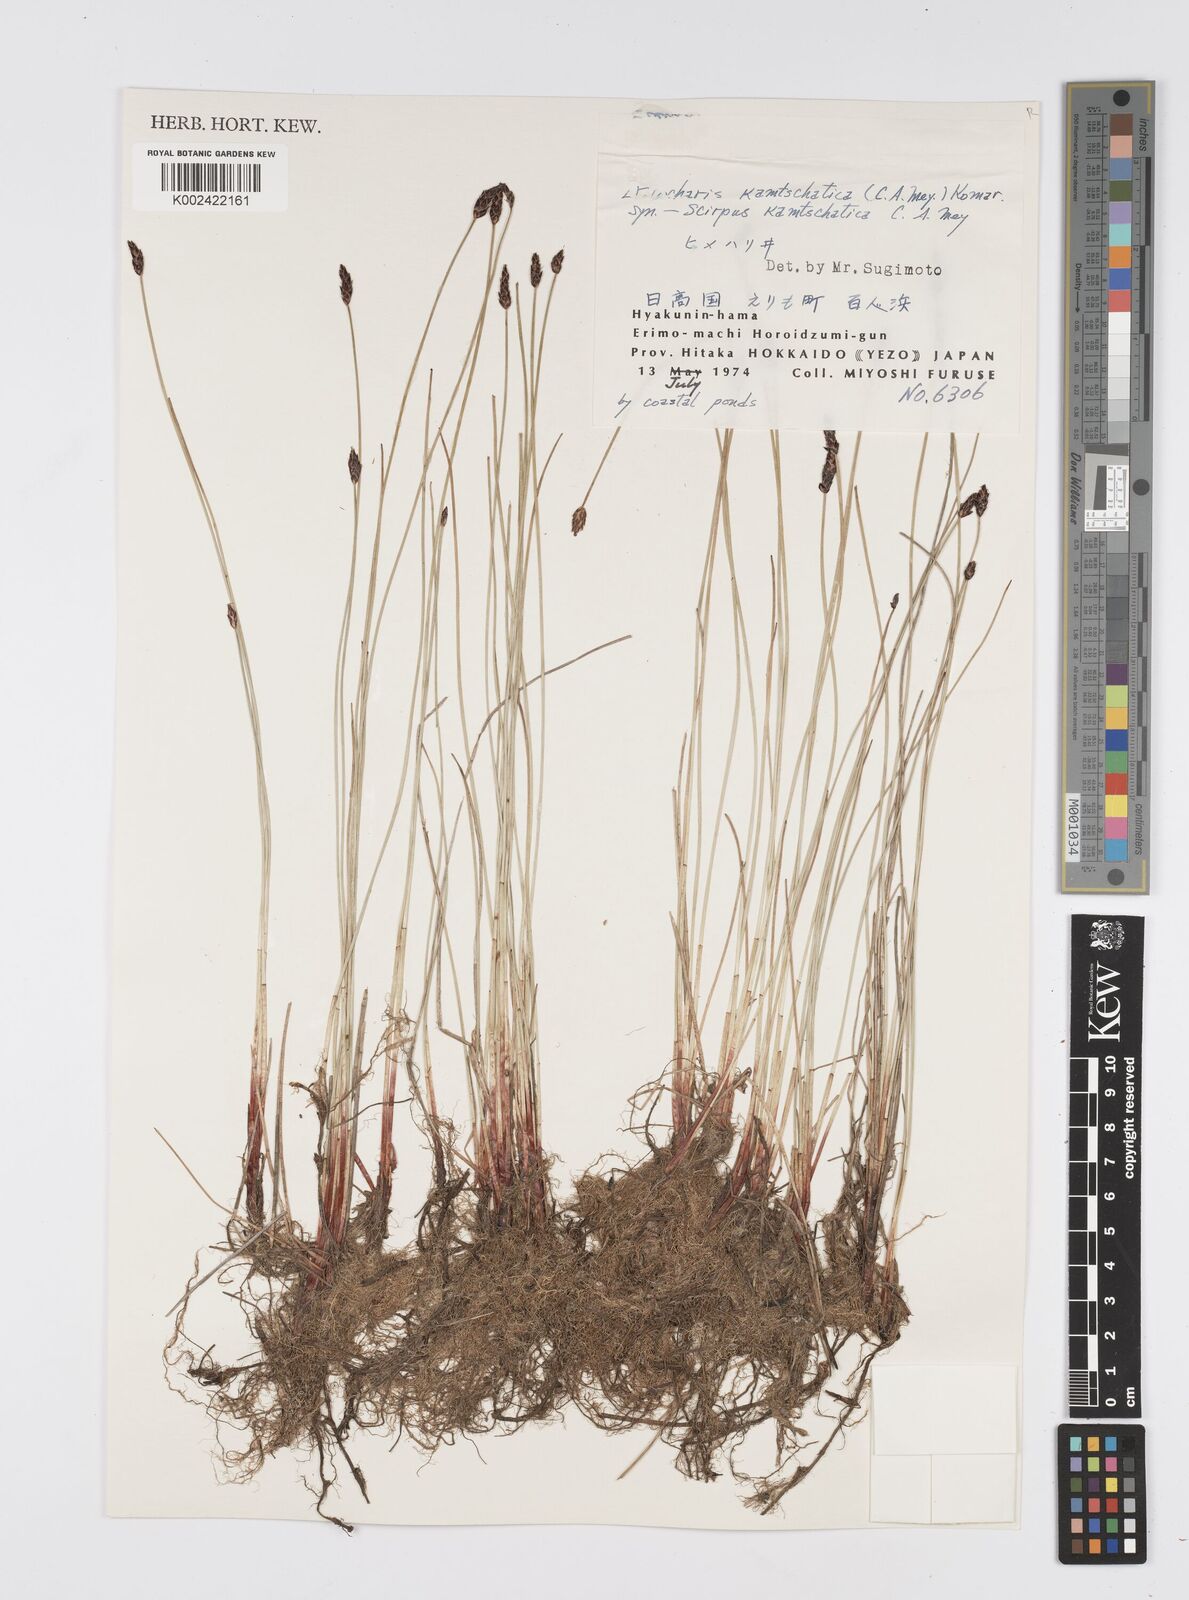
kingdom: Plantae
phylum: Tracheophyta
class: Liliopsida
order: Poales
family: Cyperaceae
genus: Eleocharis
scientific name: Eleocharis kamtschatica
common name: Kamchatka spikerush
